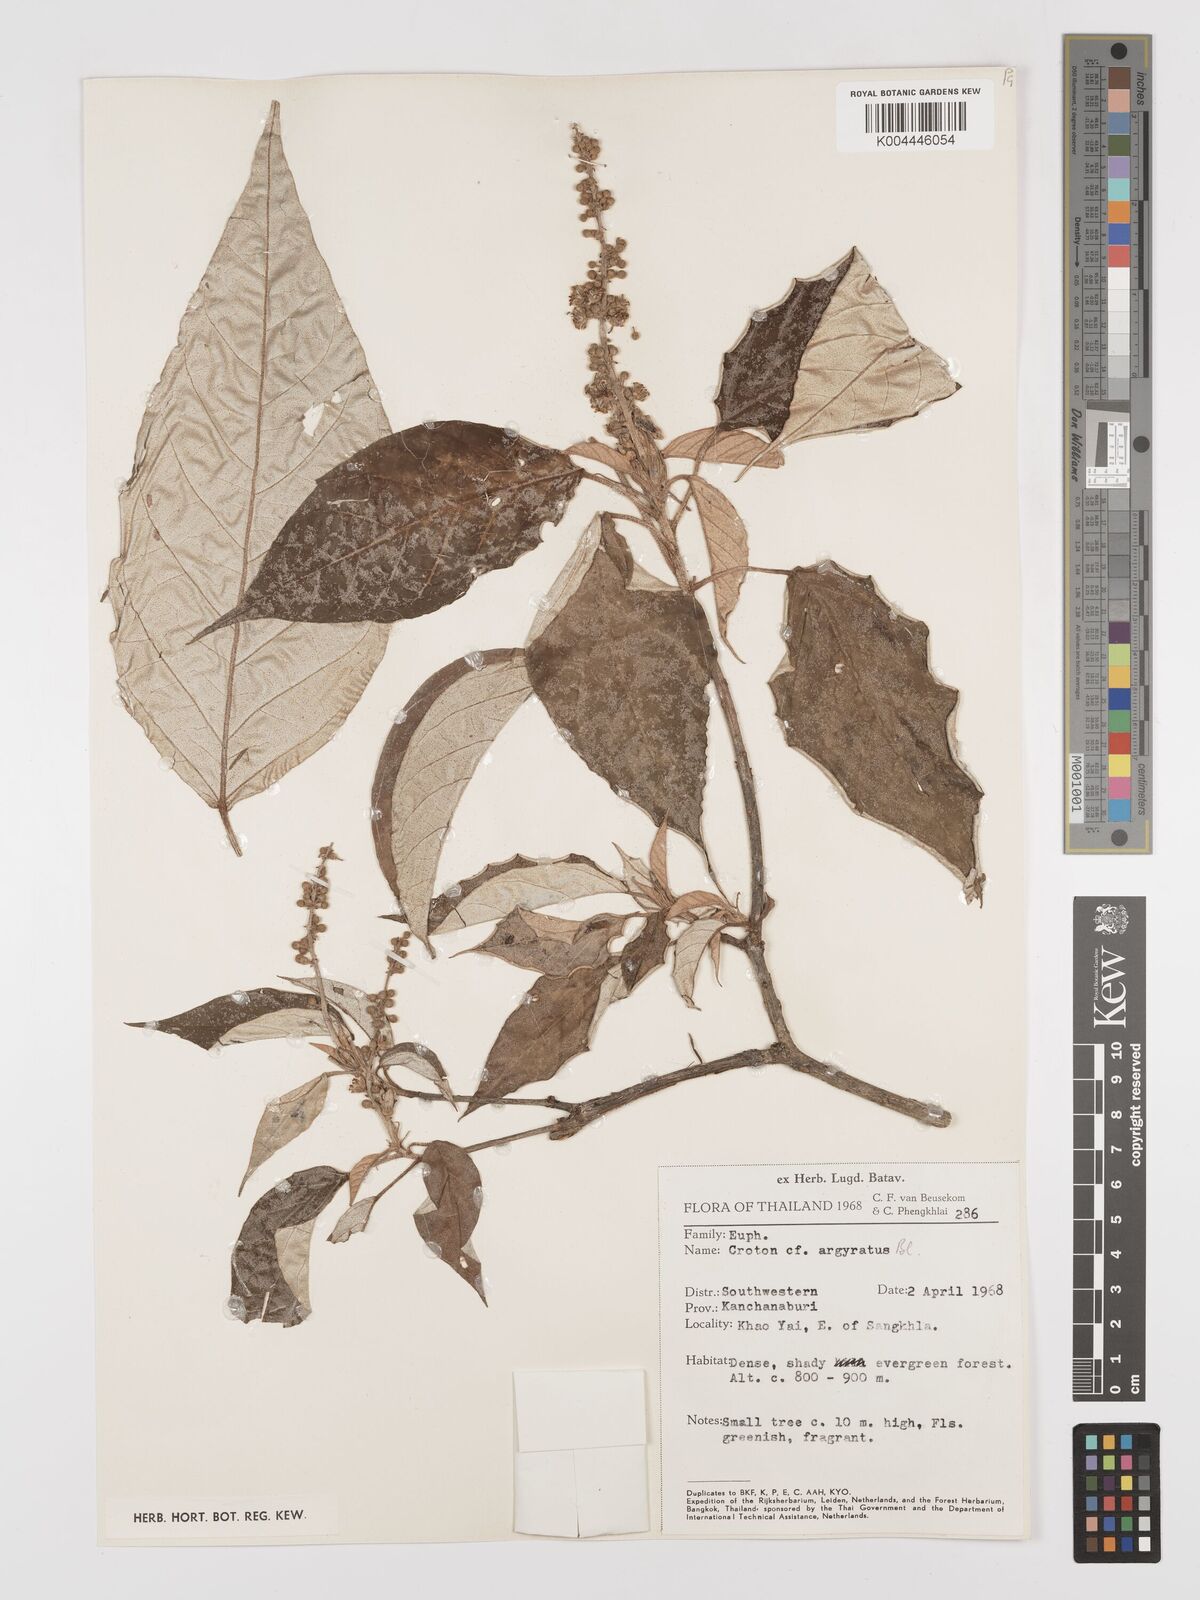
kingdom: Plantae
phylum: Tracheophyta
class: Magnoliopsida
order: Malpighiales
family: Euphorbiaceae
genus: Croton
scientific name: Croton argyratus
